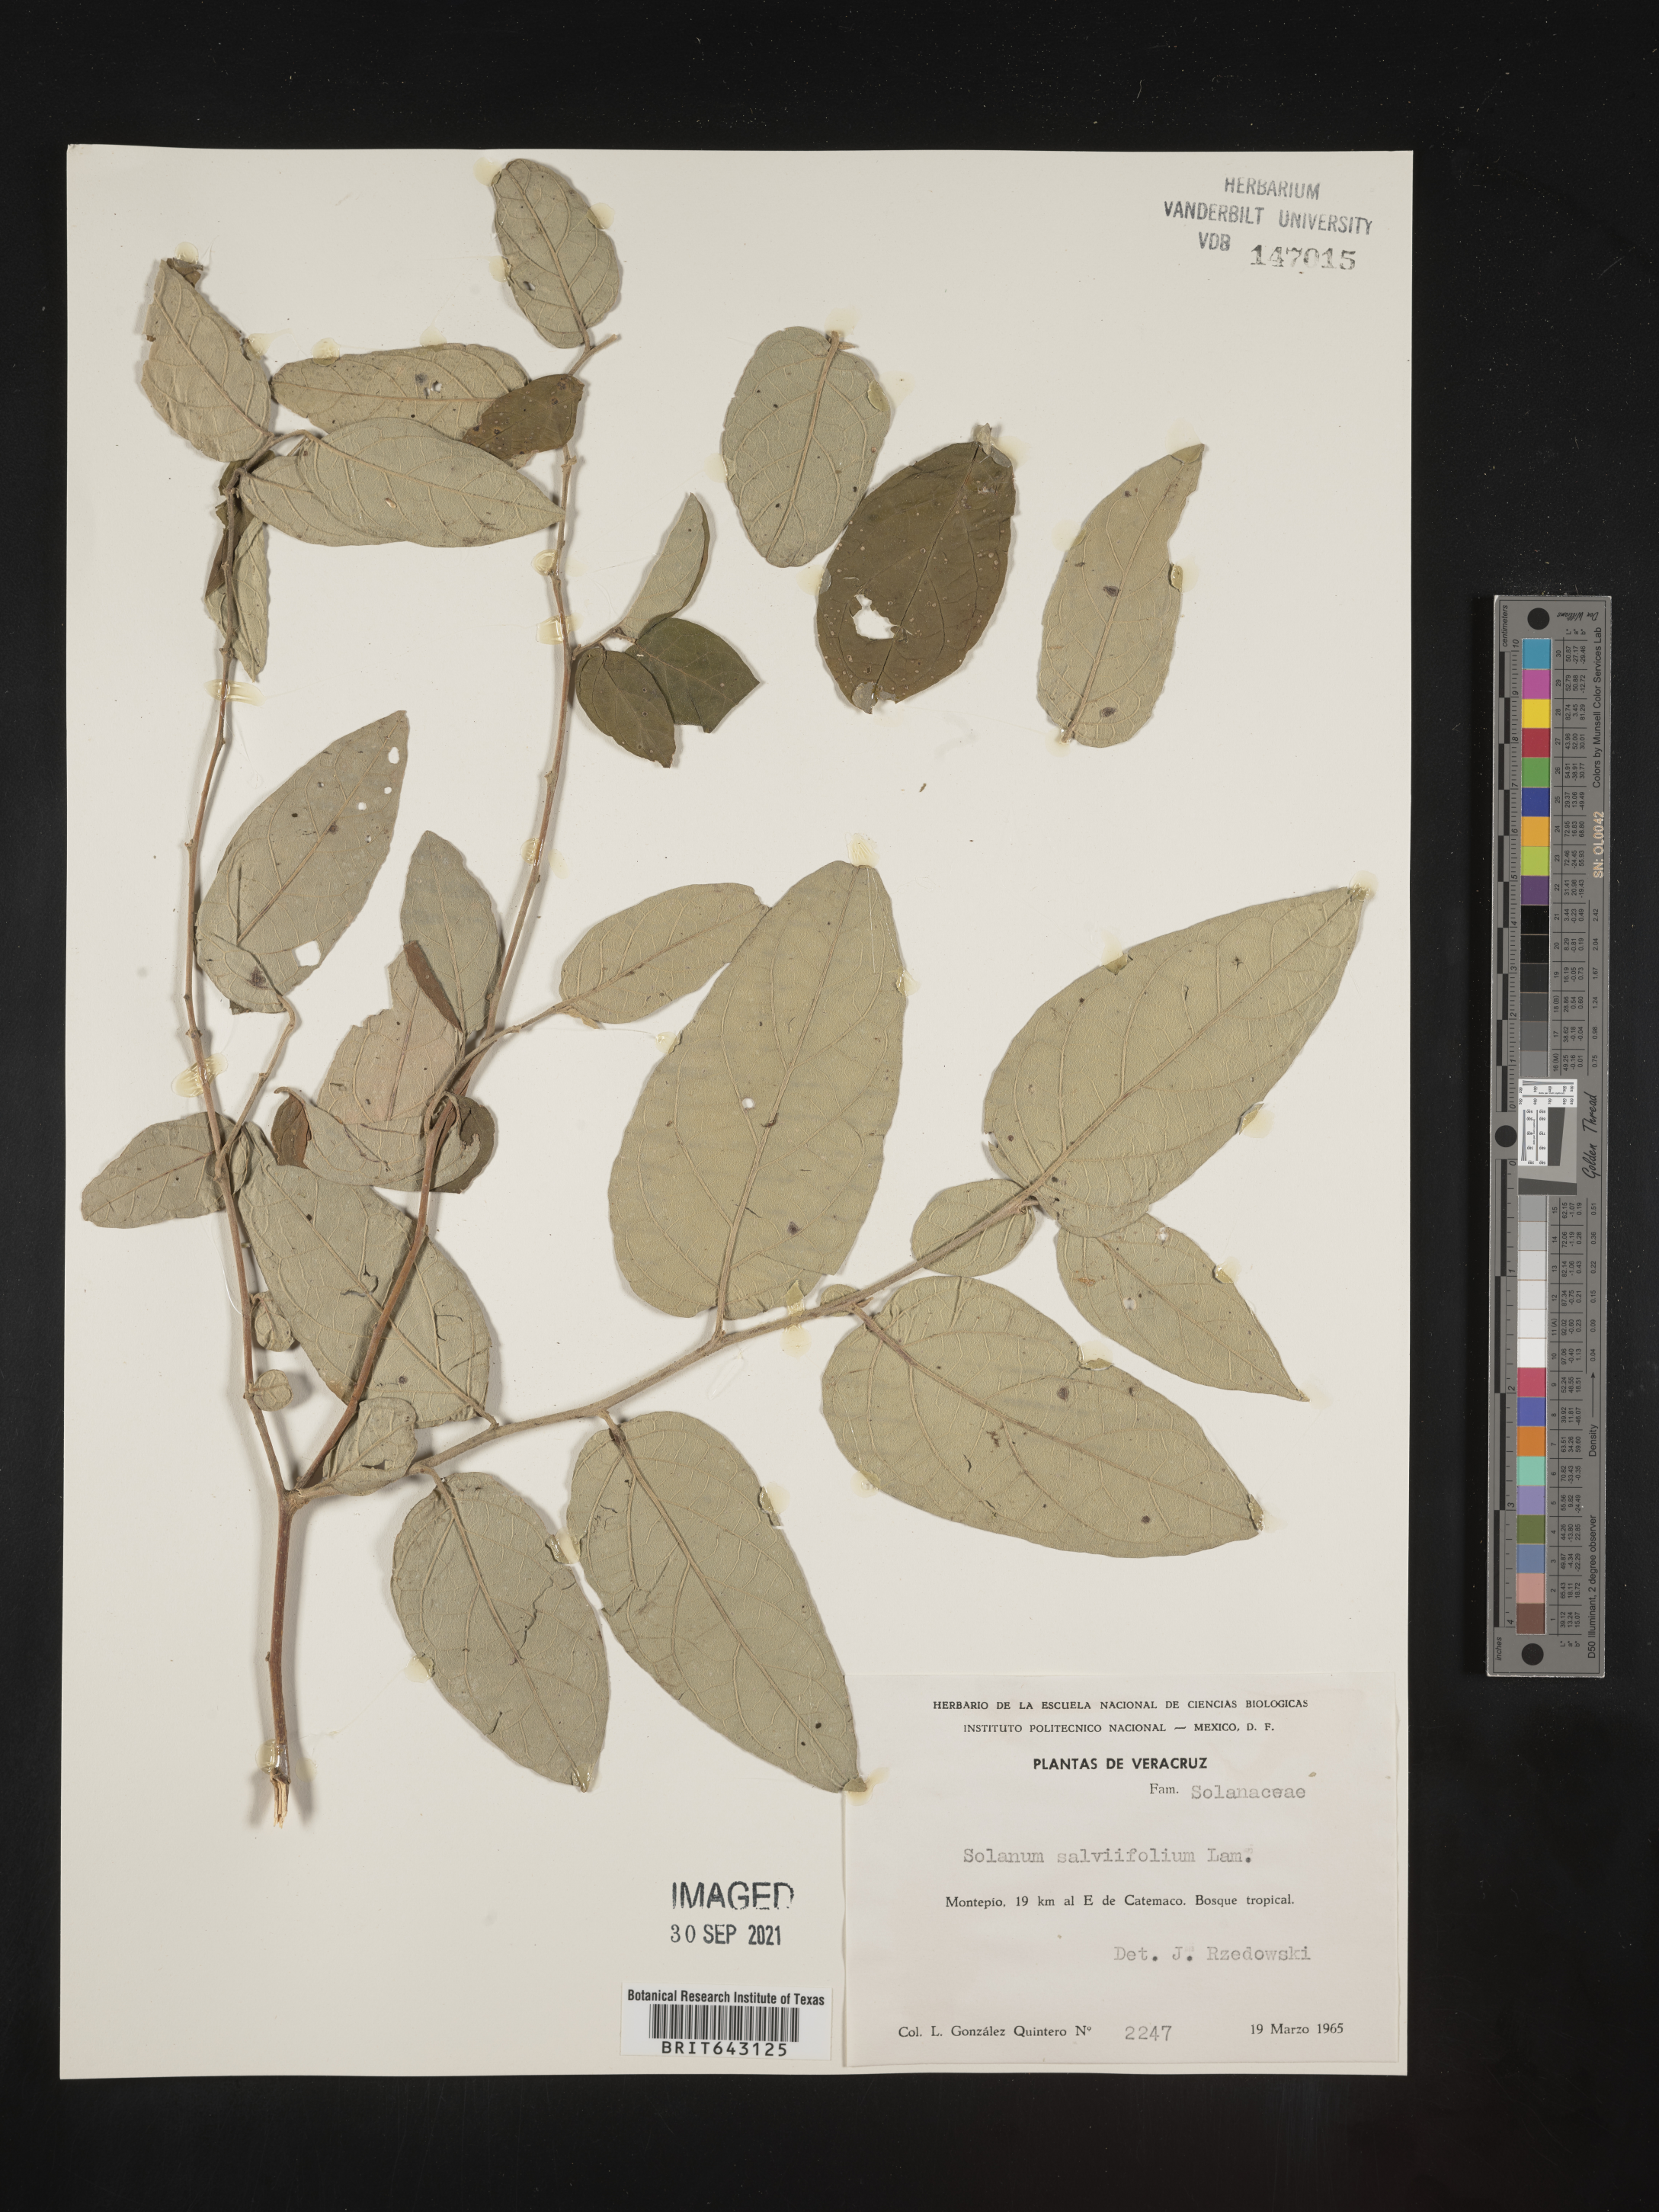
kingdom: Plantae
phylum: Tracheophyta
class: Magnoliopsida
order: Solanales
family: Solanaceae
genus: Solanum
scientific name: Solanum
